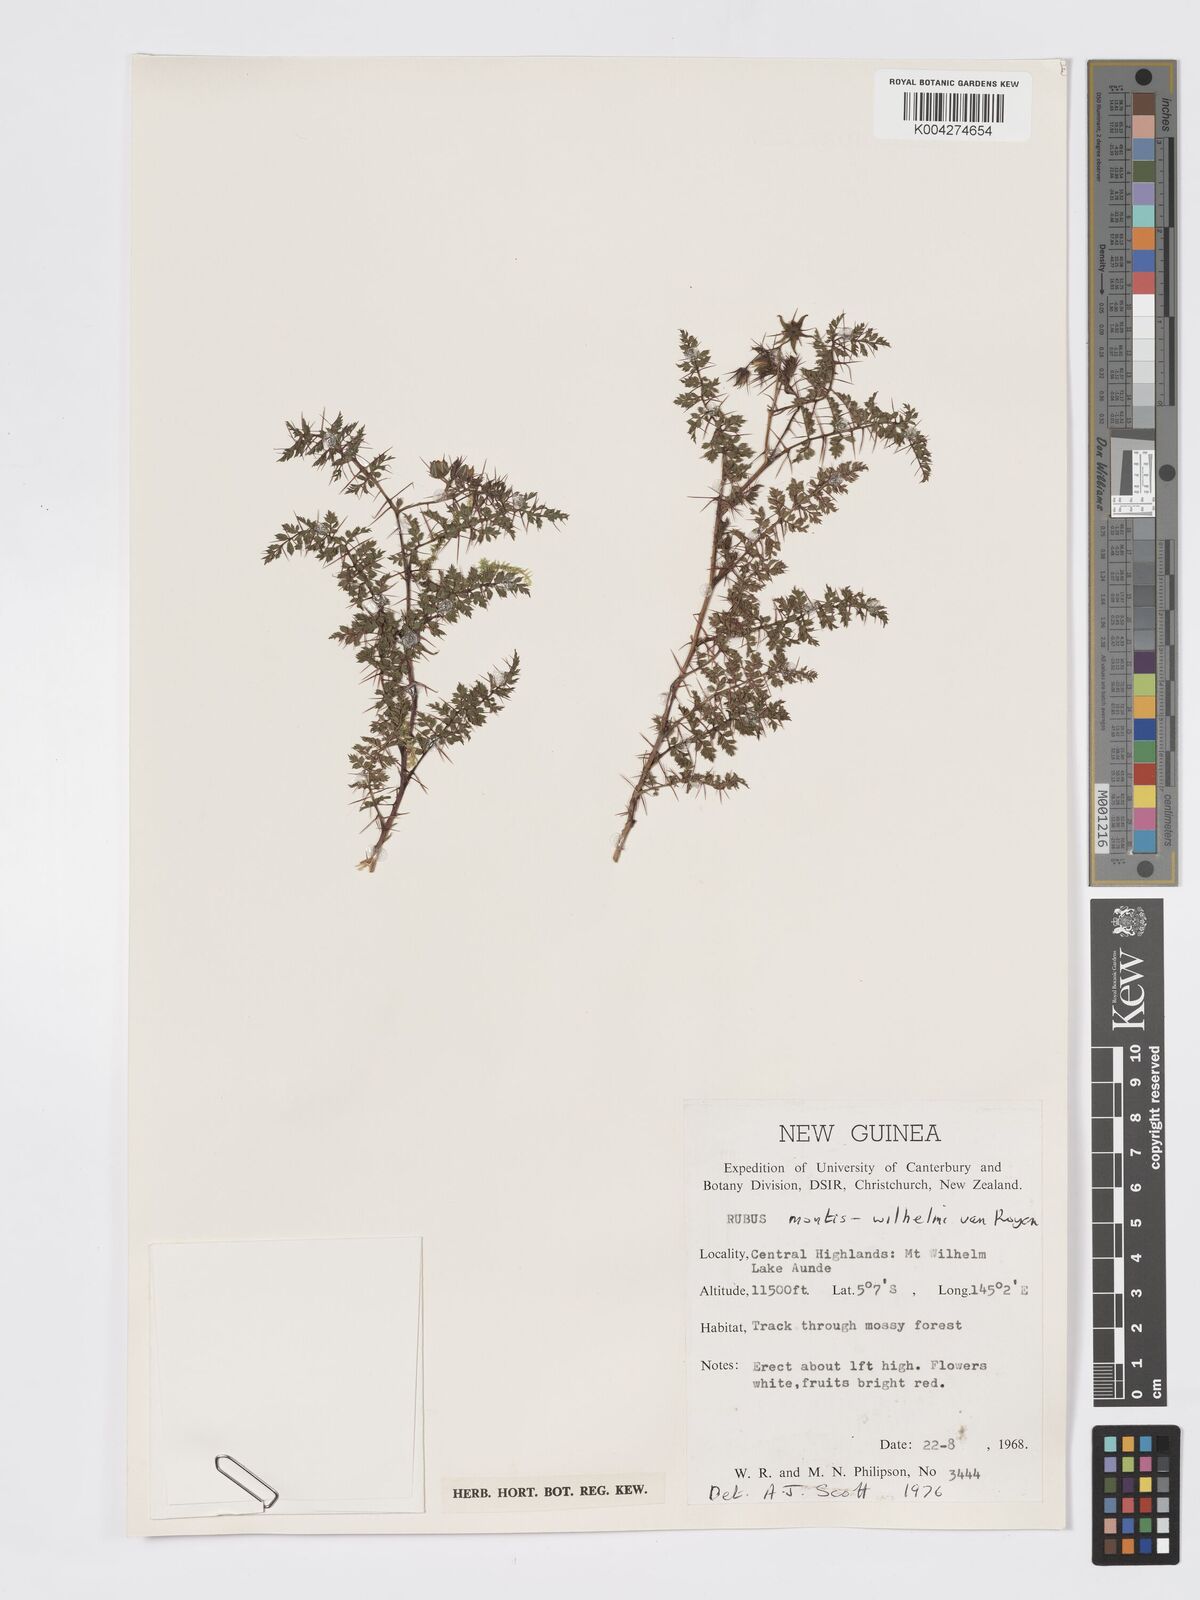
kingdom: Plantae
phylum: Tracheophyta
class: Magnoliopsida
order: Rosales
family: Rosaceae
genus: Rubus
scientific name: Rubus montis-wilhelmii
